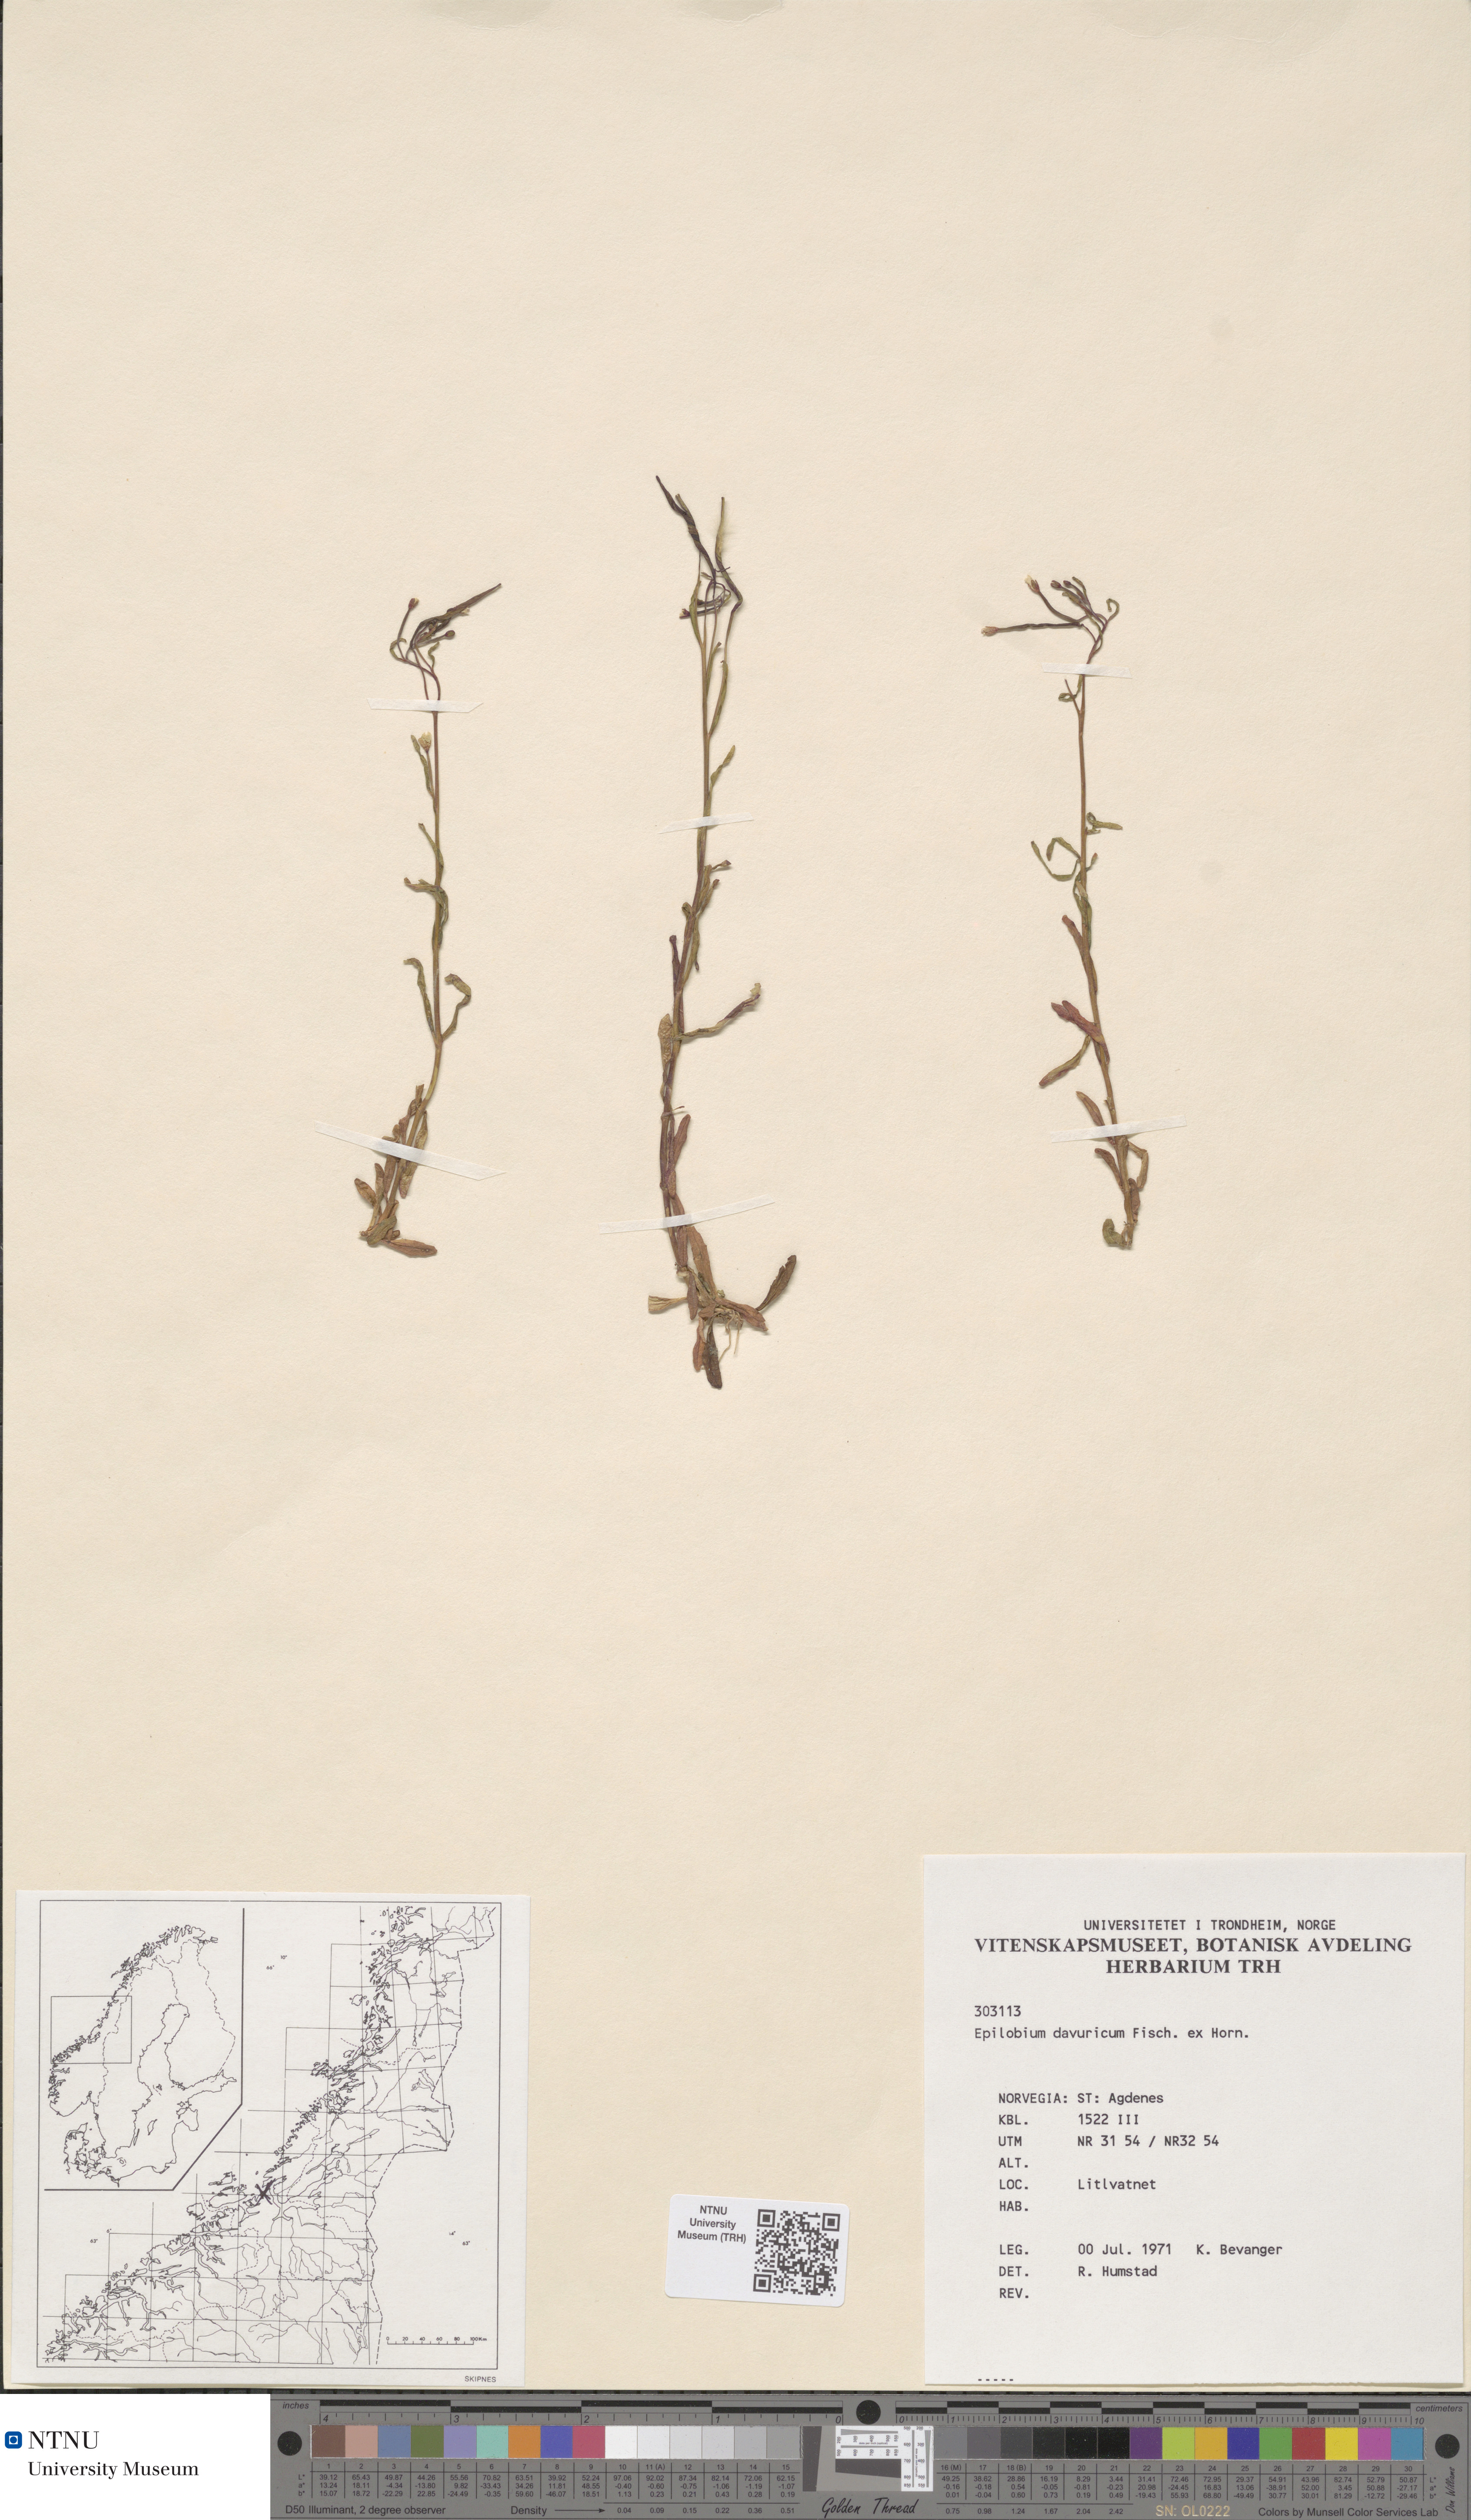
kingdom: Plantae
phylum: Tracheophyta
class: Magnoliopsida
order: Myrtales
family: Onagraceae
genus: Epilobium
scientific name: Epilobium davuricum
